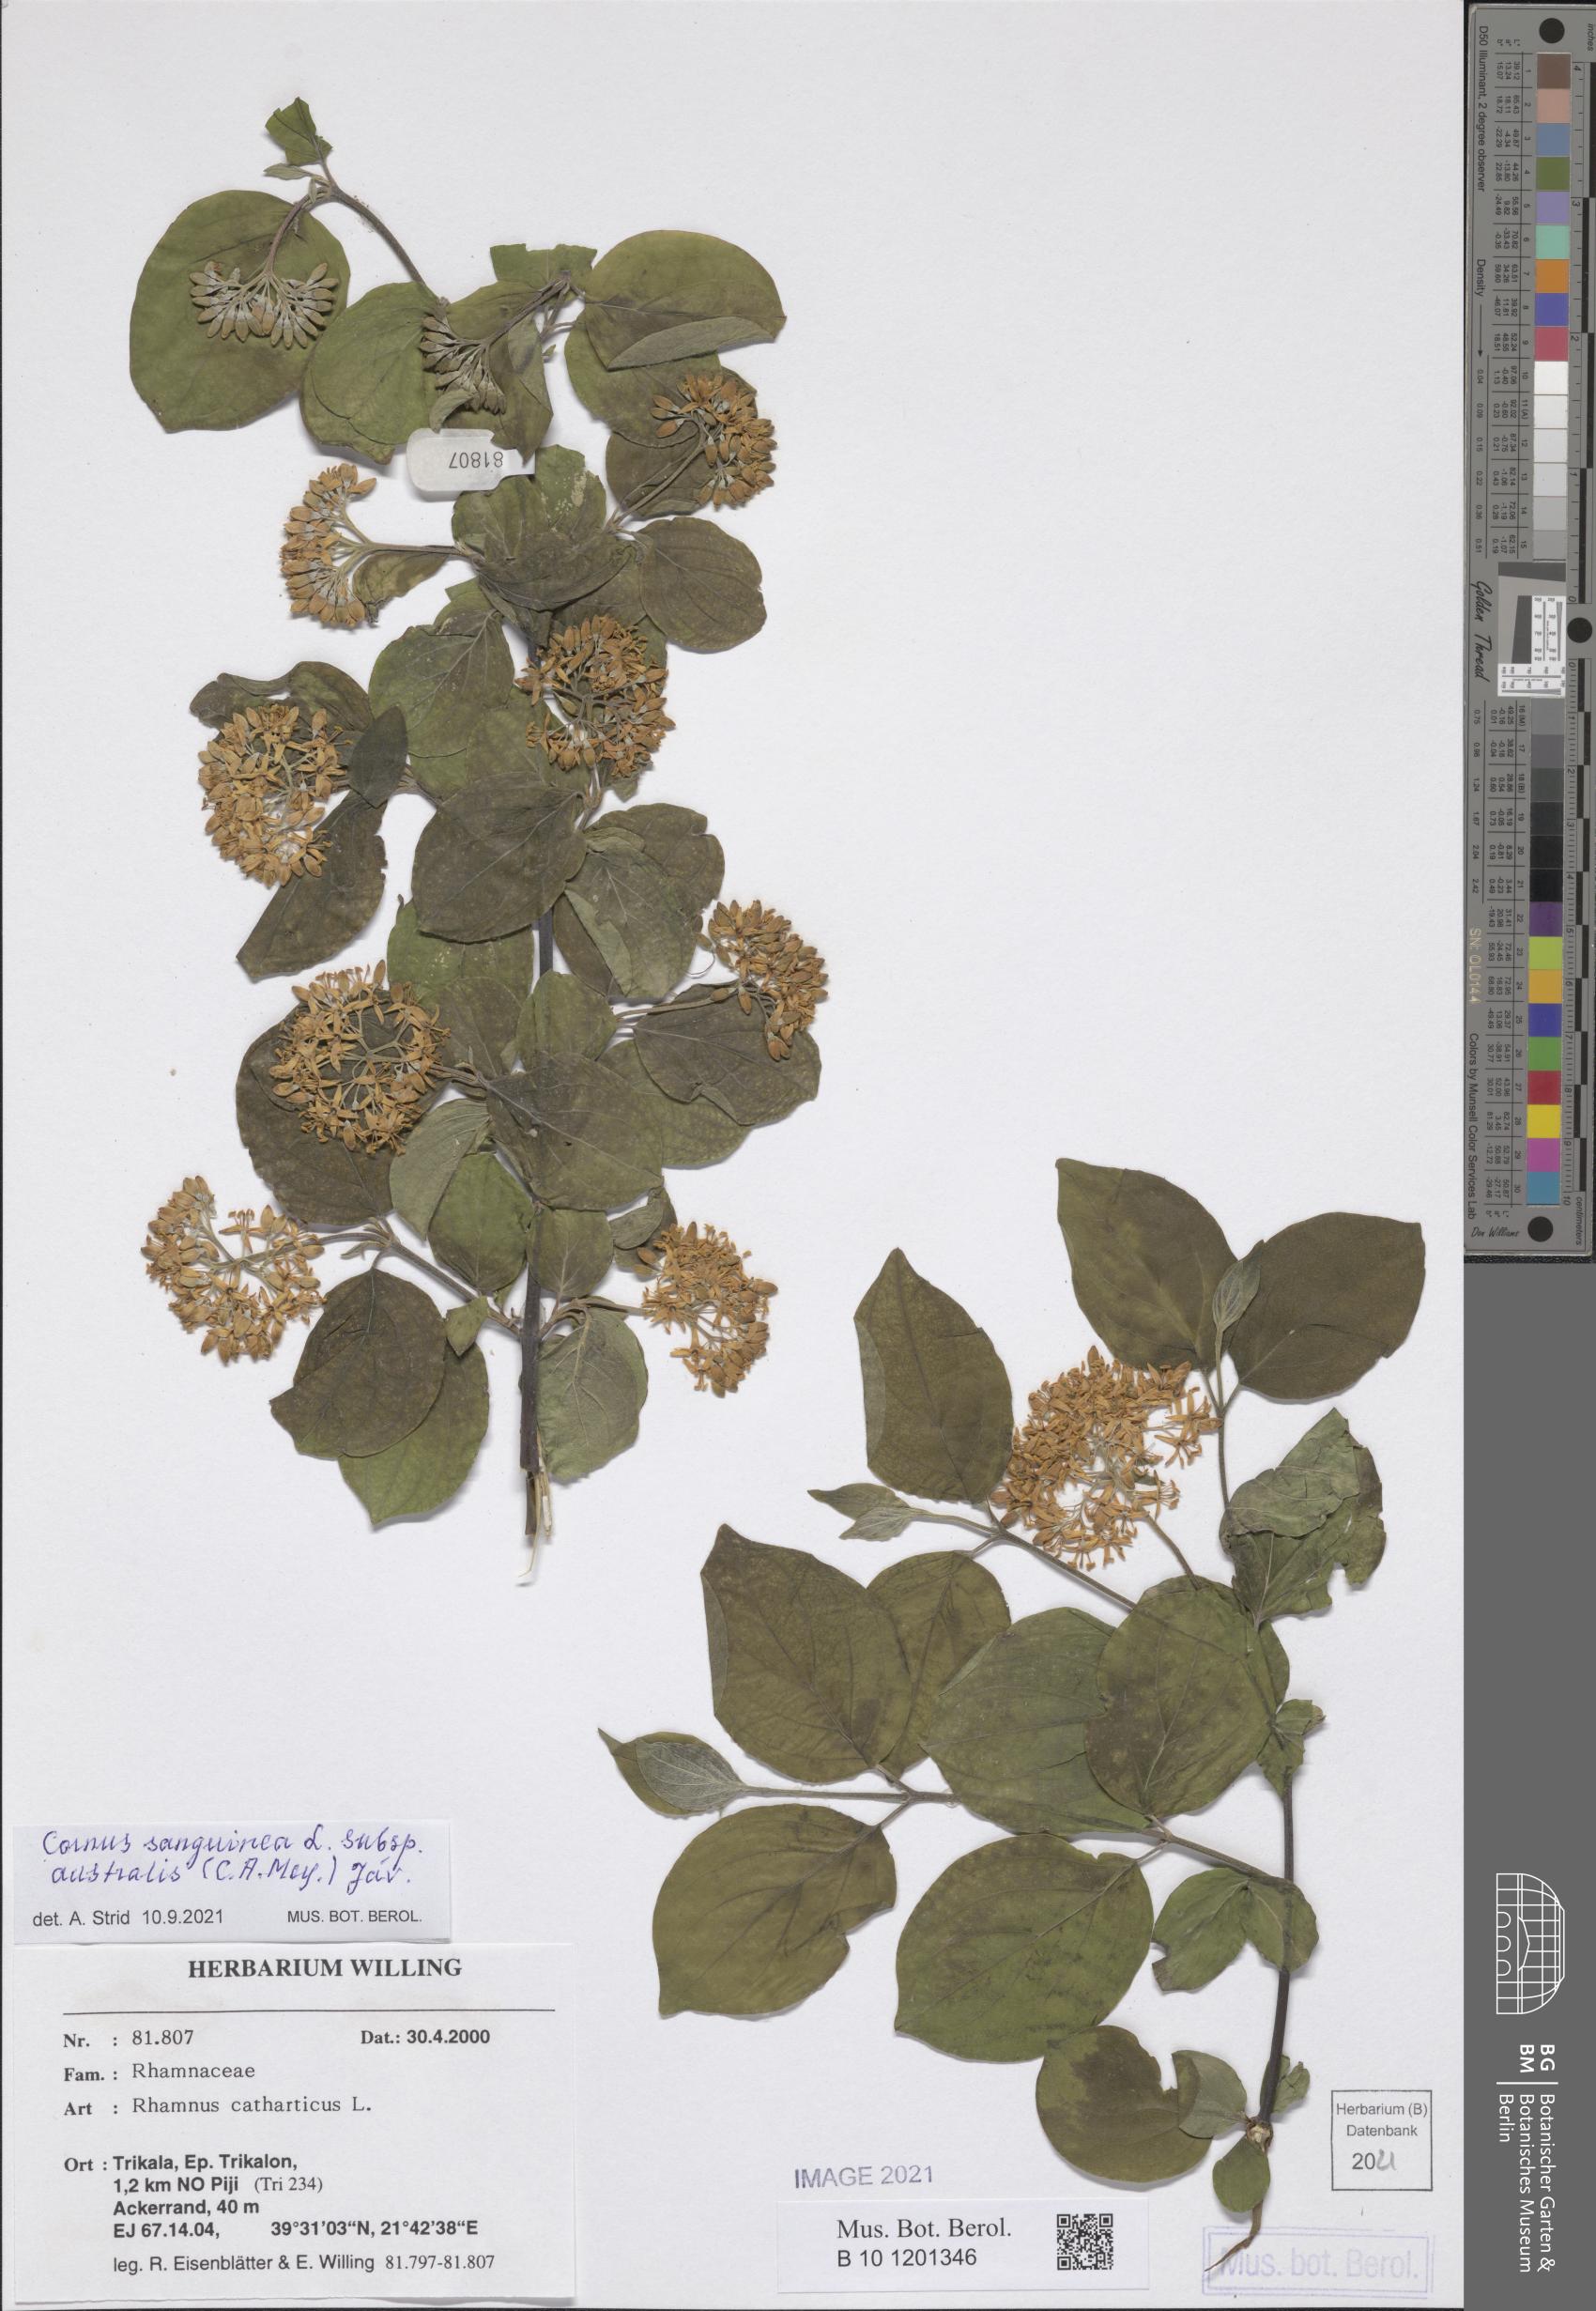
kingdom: Plantae
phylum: Tracheophyta
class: Magnoliopsida
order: Cornales
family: Cornaceae
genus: Cornus
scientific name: Cornus sanguinea
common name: Dogwood
